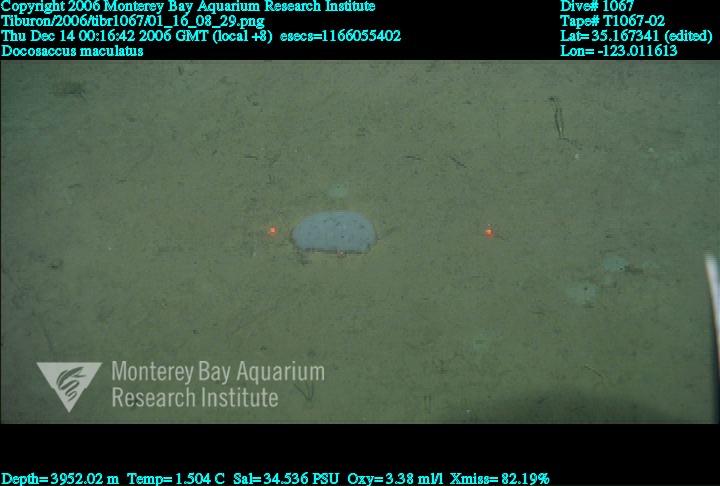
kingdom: Animalia
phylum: Porifera
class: Hexactinellida
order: Lyssacinosida
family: Euplectellidae
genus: Docosaccus
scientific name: Docosaccus maculatus
